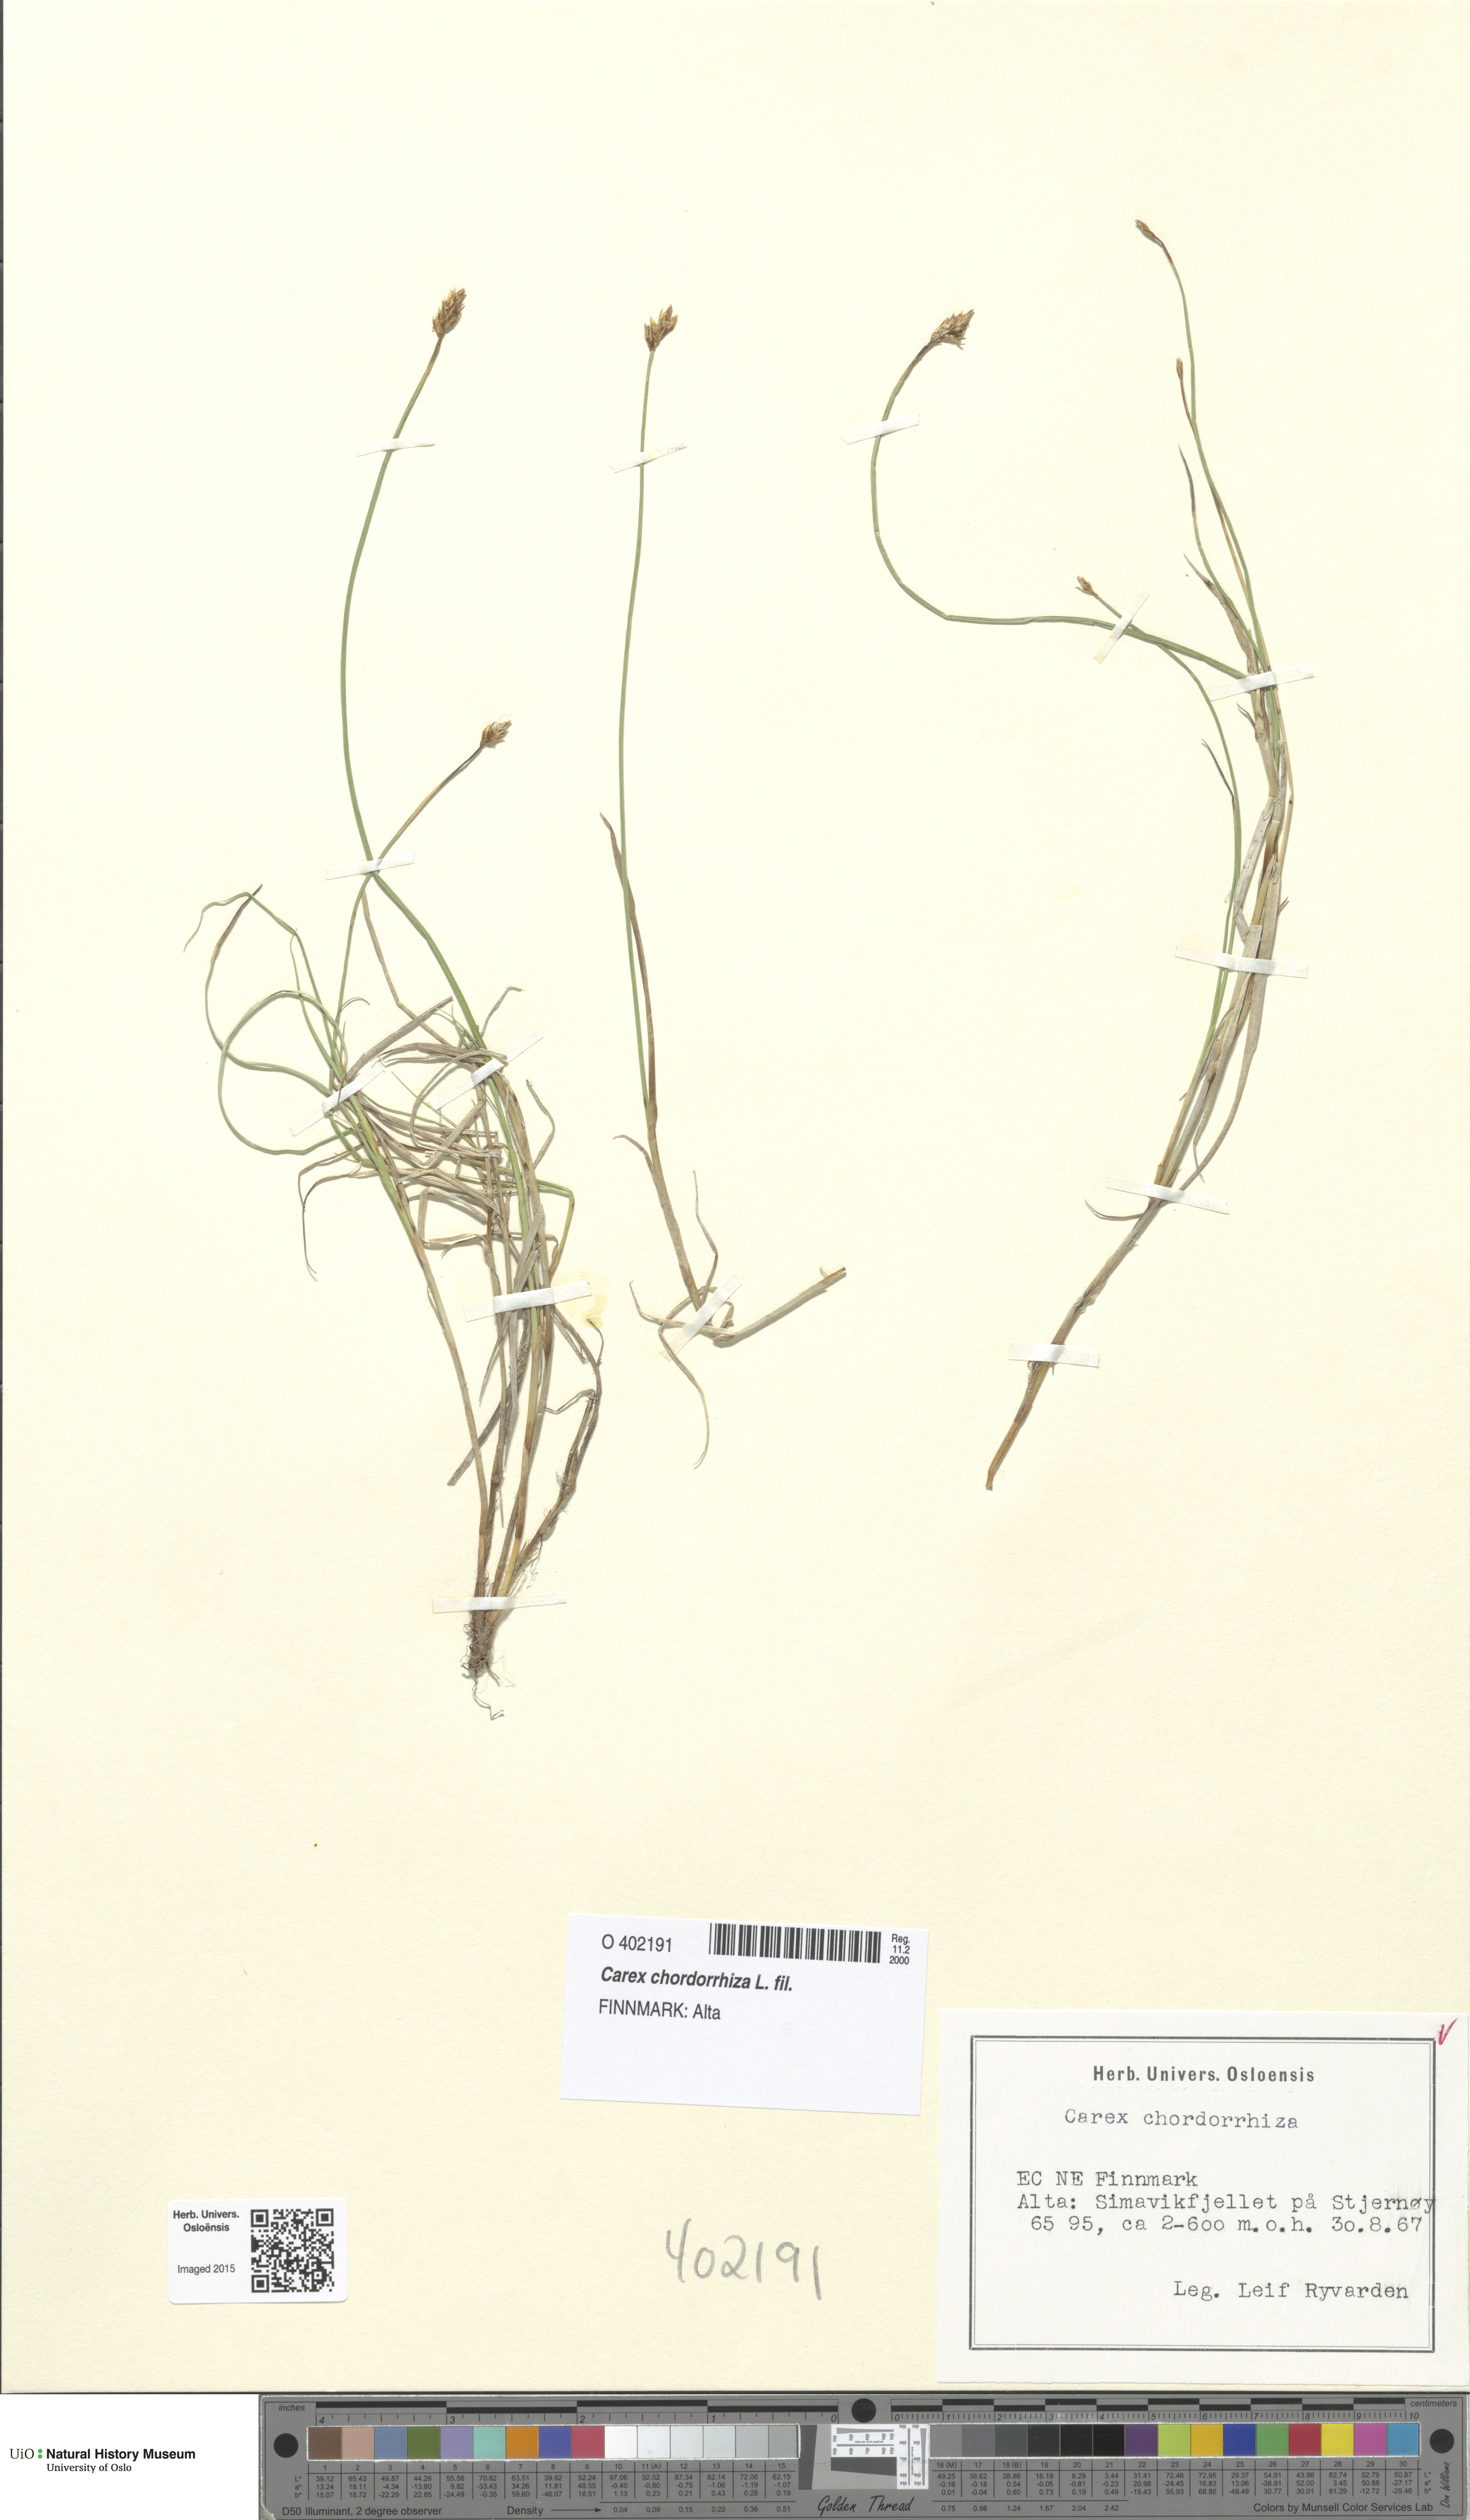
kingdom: Plantae
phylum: Tracheophyta
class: Liliopsida
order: Poales
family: Cyperaceae
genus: Carex
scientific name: Carex chordorrhiza
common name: String sedge
